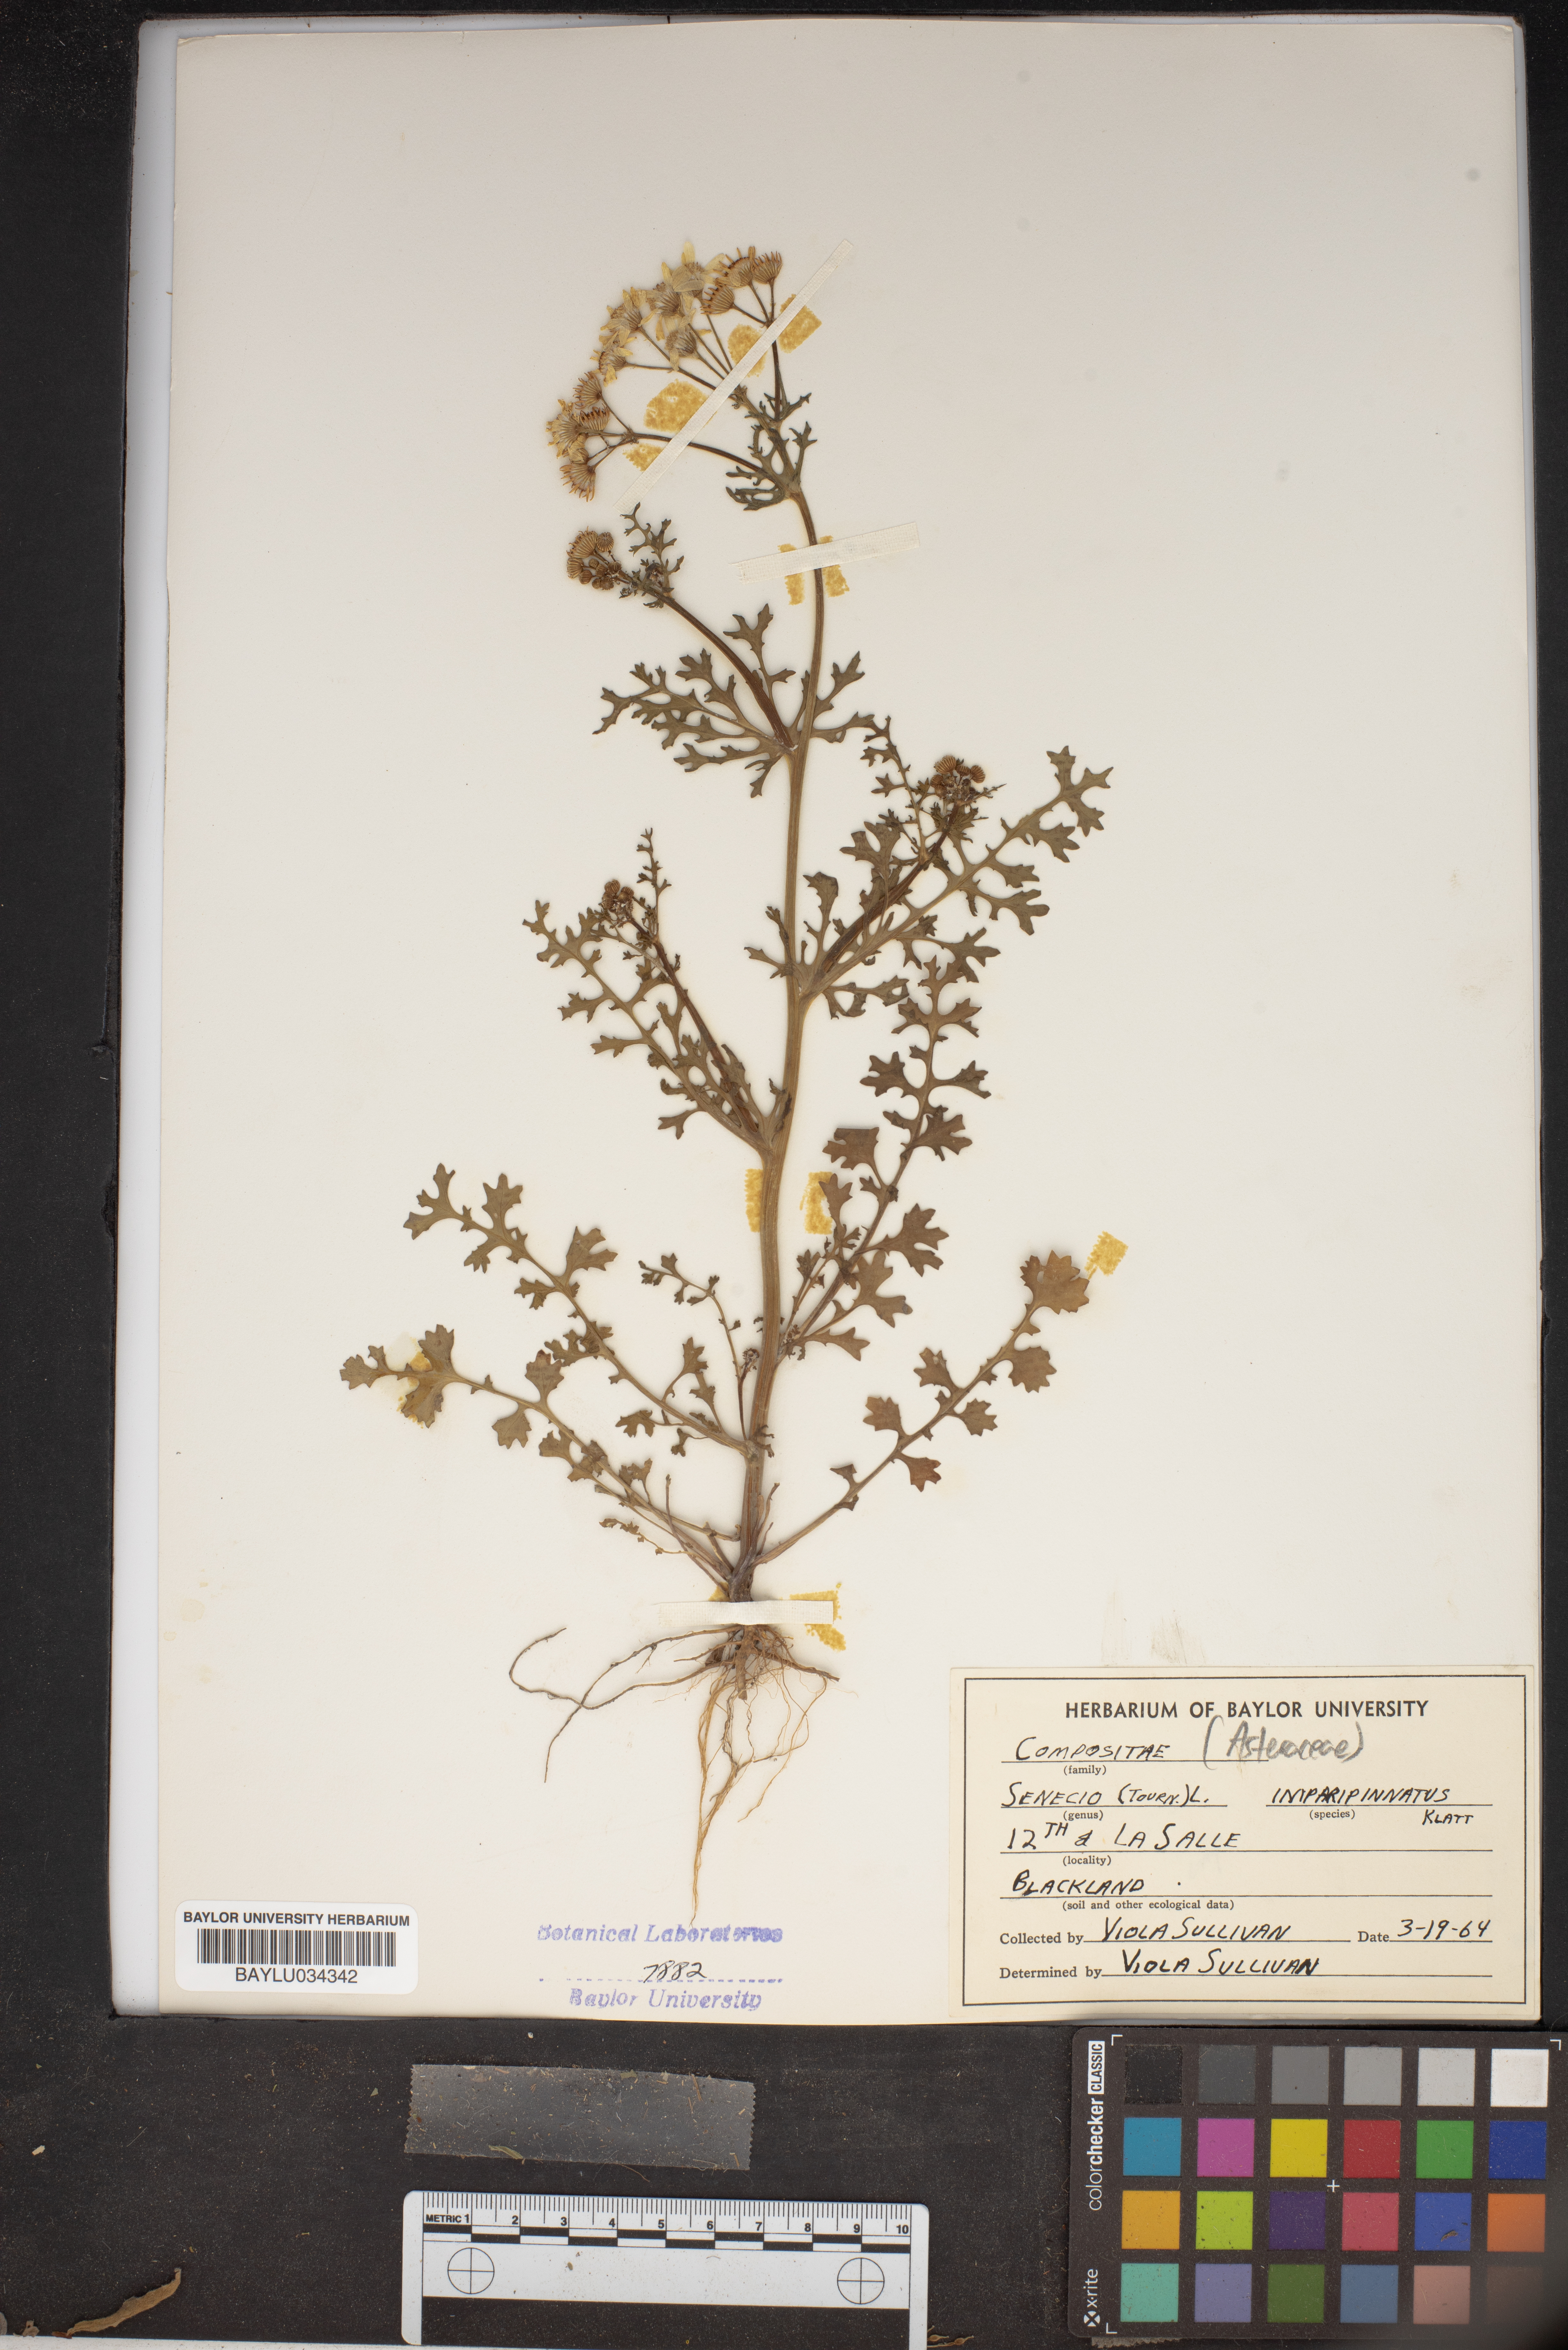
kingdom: Plantae
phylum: Tracheophyta
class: Magnoliopsida
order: Asterales
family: Asteraceae
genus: Packera
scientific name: Packera tampicana
